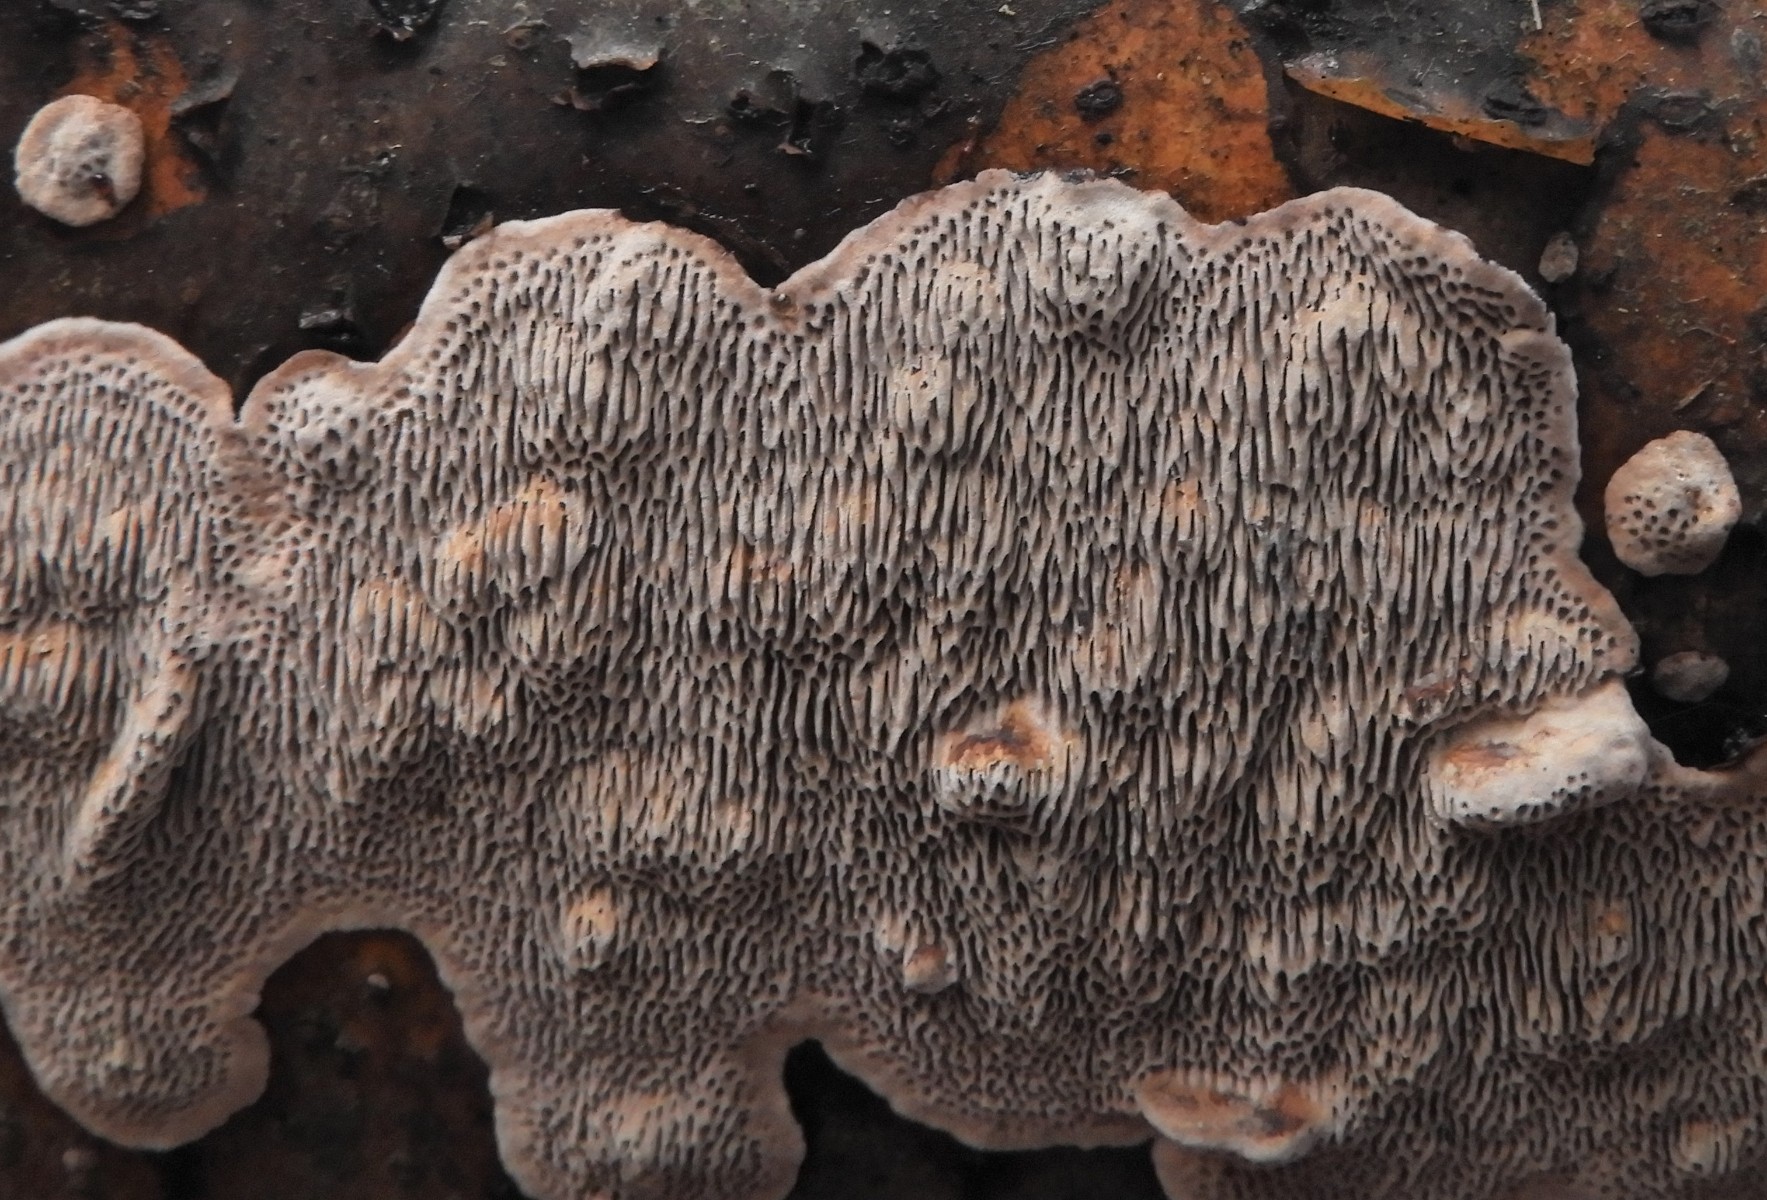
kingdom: Fungi
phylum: Basidiomycota
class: Agaricomycetes
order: Polyporales
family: Polyporaceae
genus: Podofomes
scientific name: Podofomes mollis
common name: blød begporesvamp
